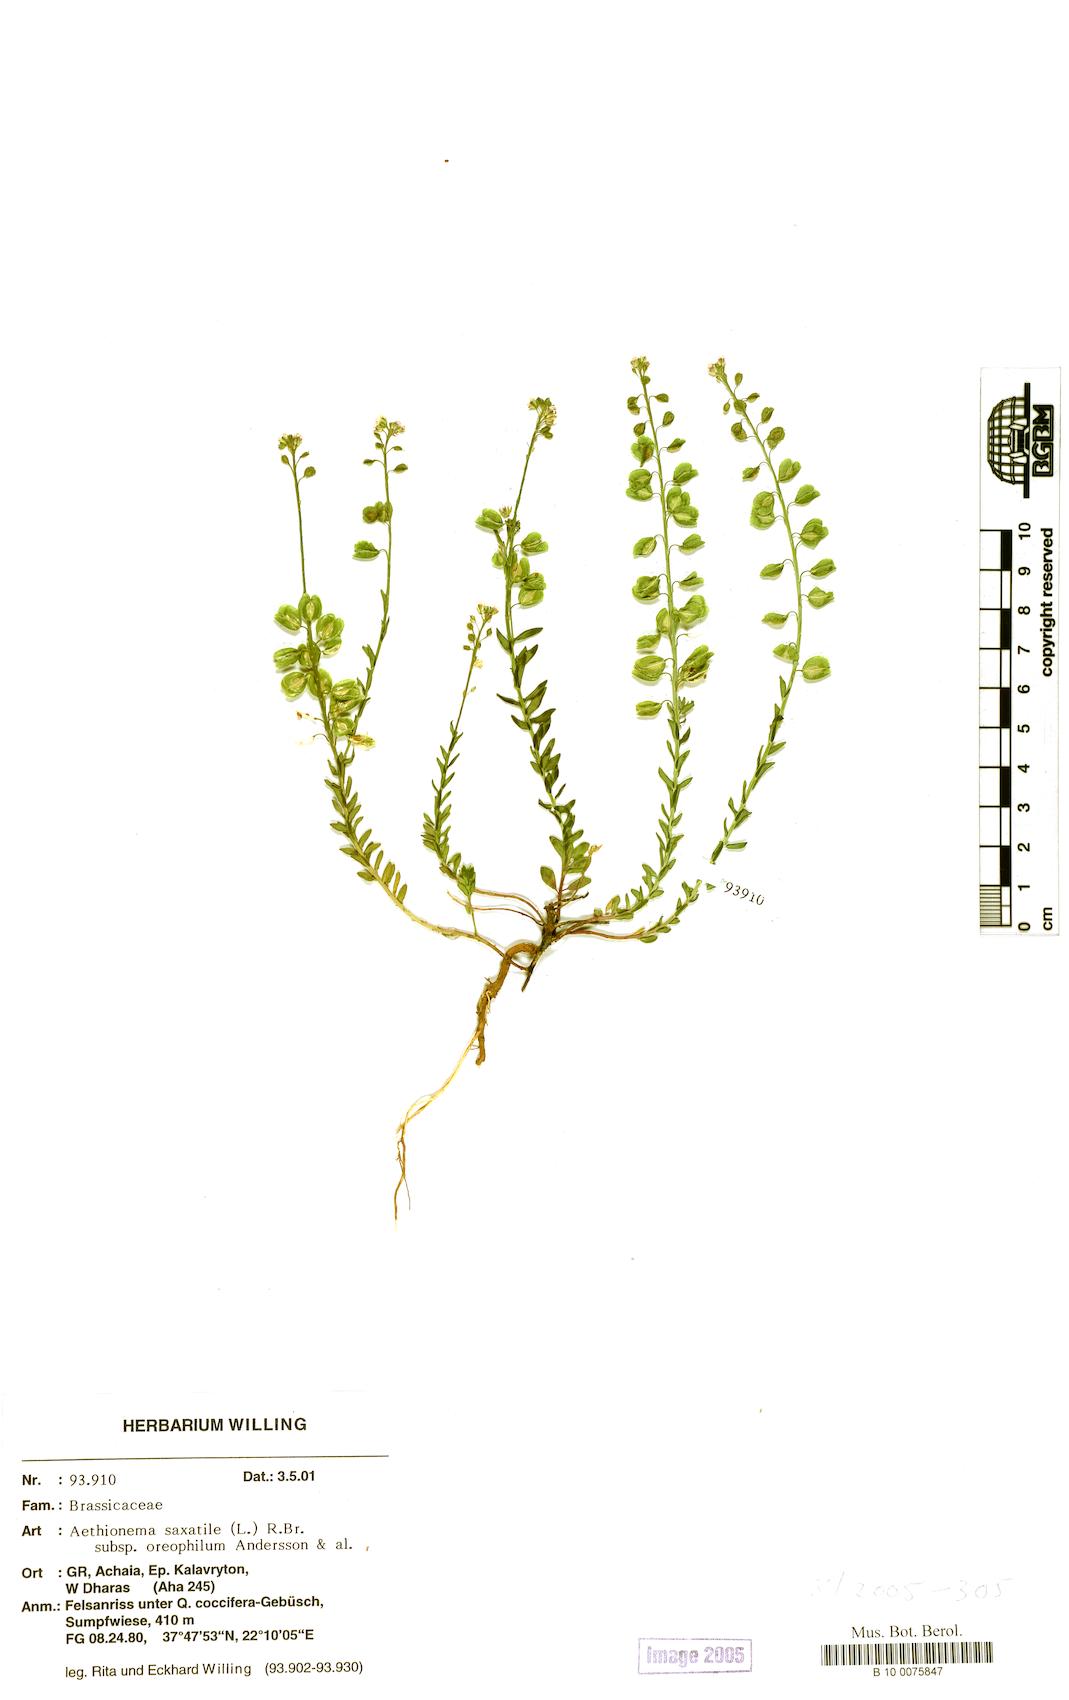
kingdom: Plantae
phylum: Tracheophyta
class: Magnoliopsida
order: Brassicales
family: Brassicaceae
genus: Aethionema
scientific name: Aethionema saxatile
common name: Burnt candytuft
